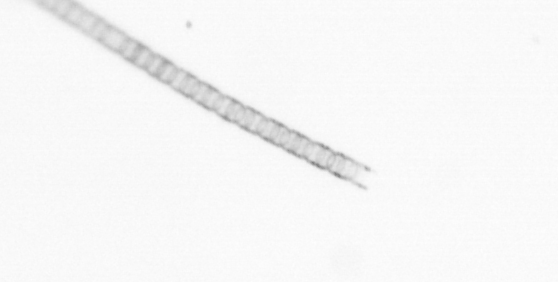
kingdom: Chromista
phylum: Ochrophyta
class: Bacillariophyceae
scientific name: Bacillariophyceae
